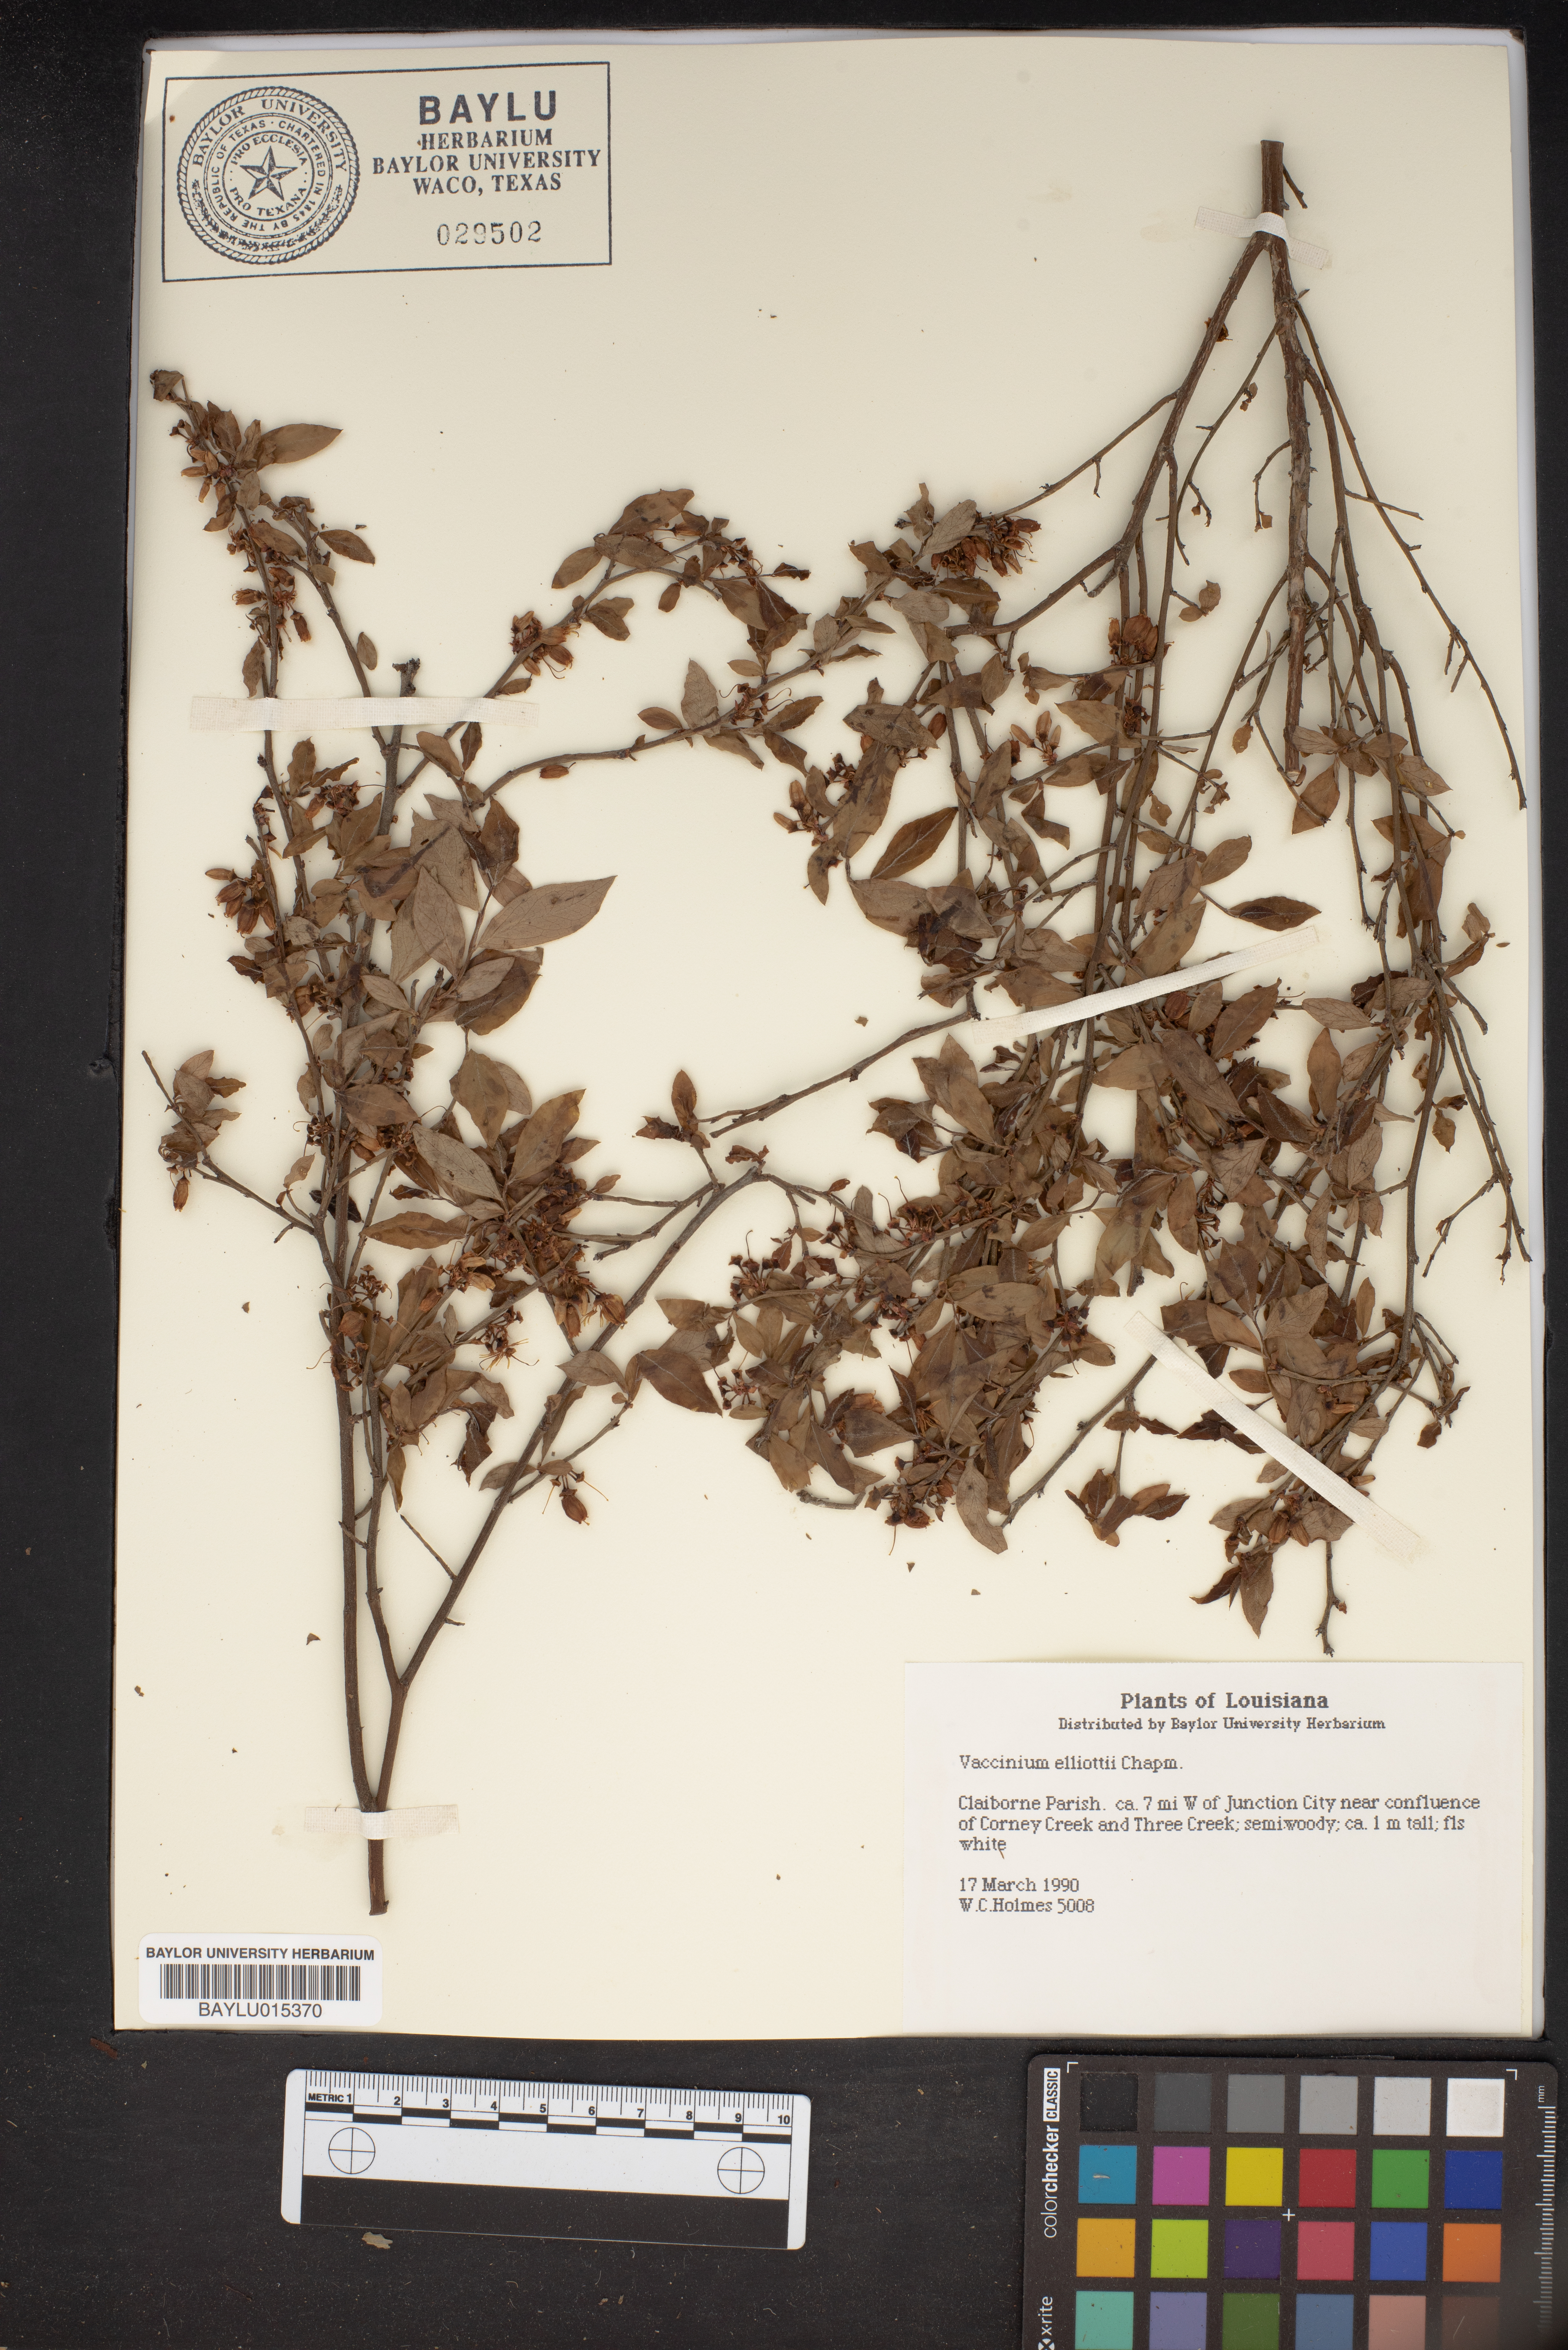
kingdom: Plantae
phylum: Tracheophyta
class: Magnoliopsida
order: Ericales
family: Ericaceae
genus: Vaccinium
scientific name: Vaccinium corymbosum
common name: Blueberry
